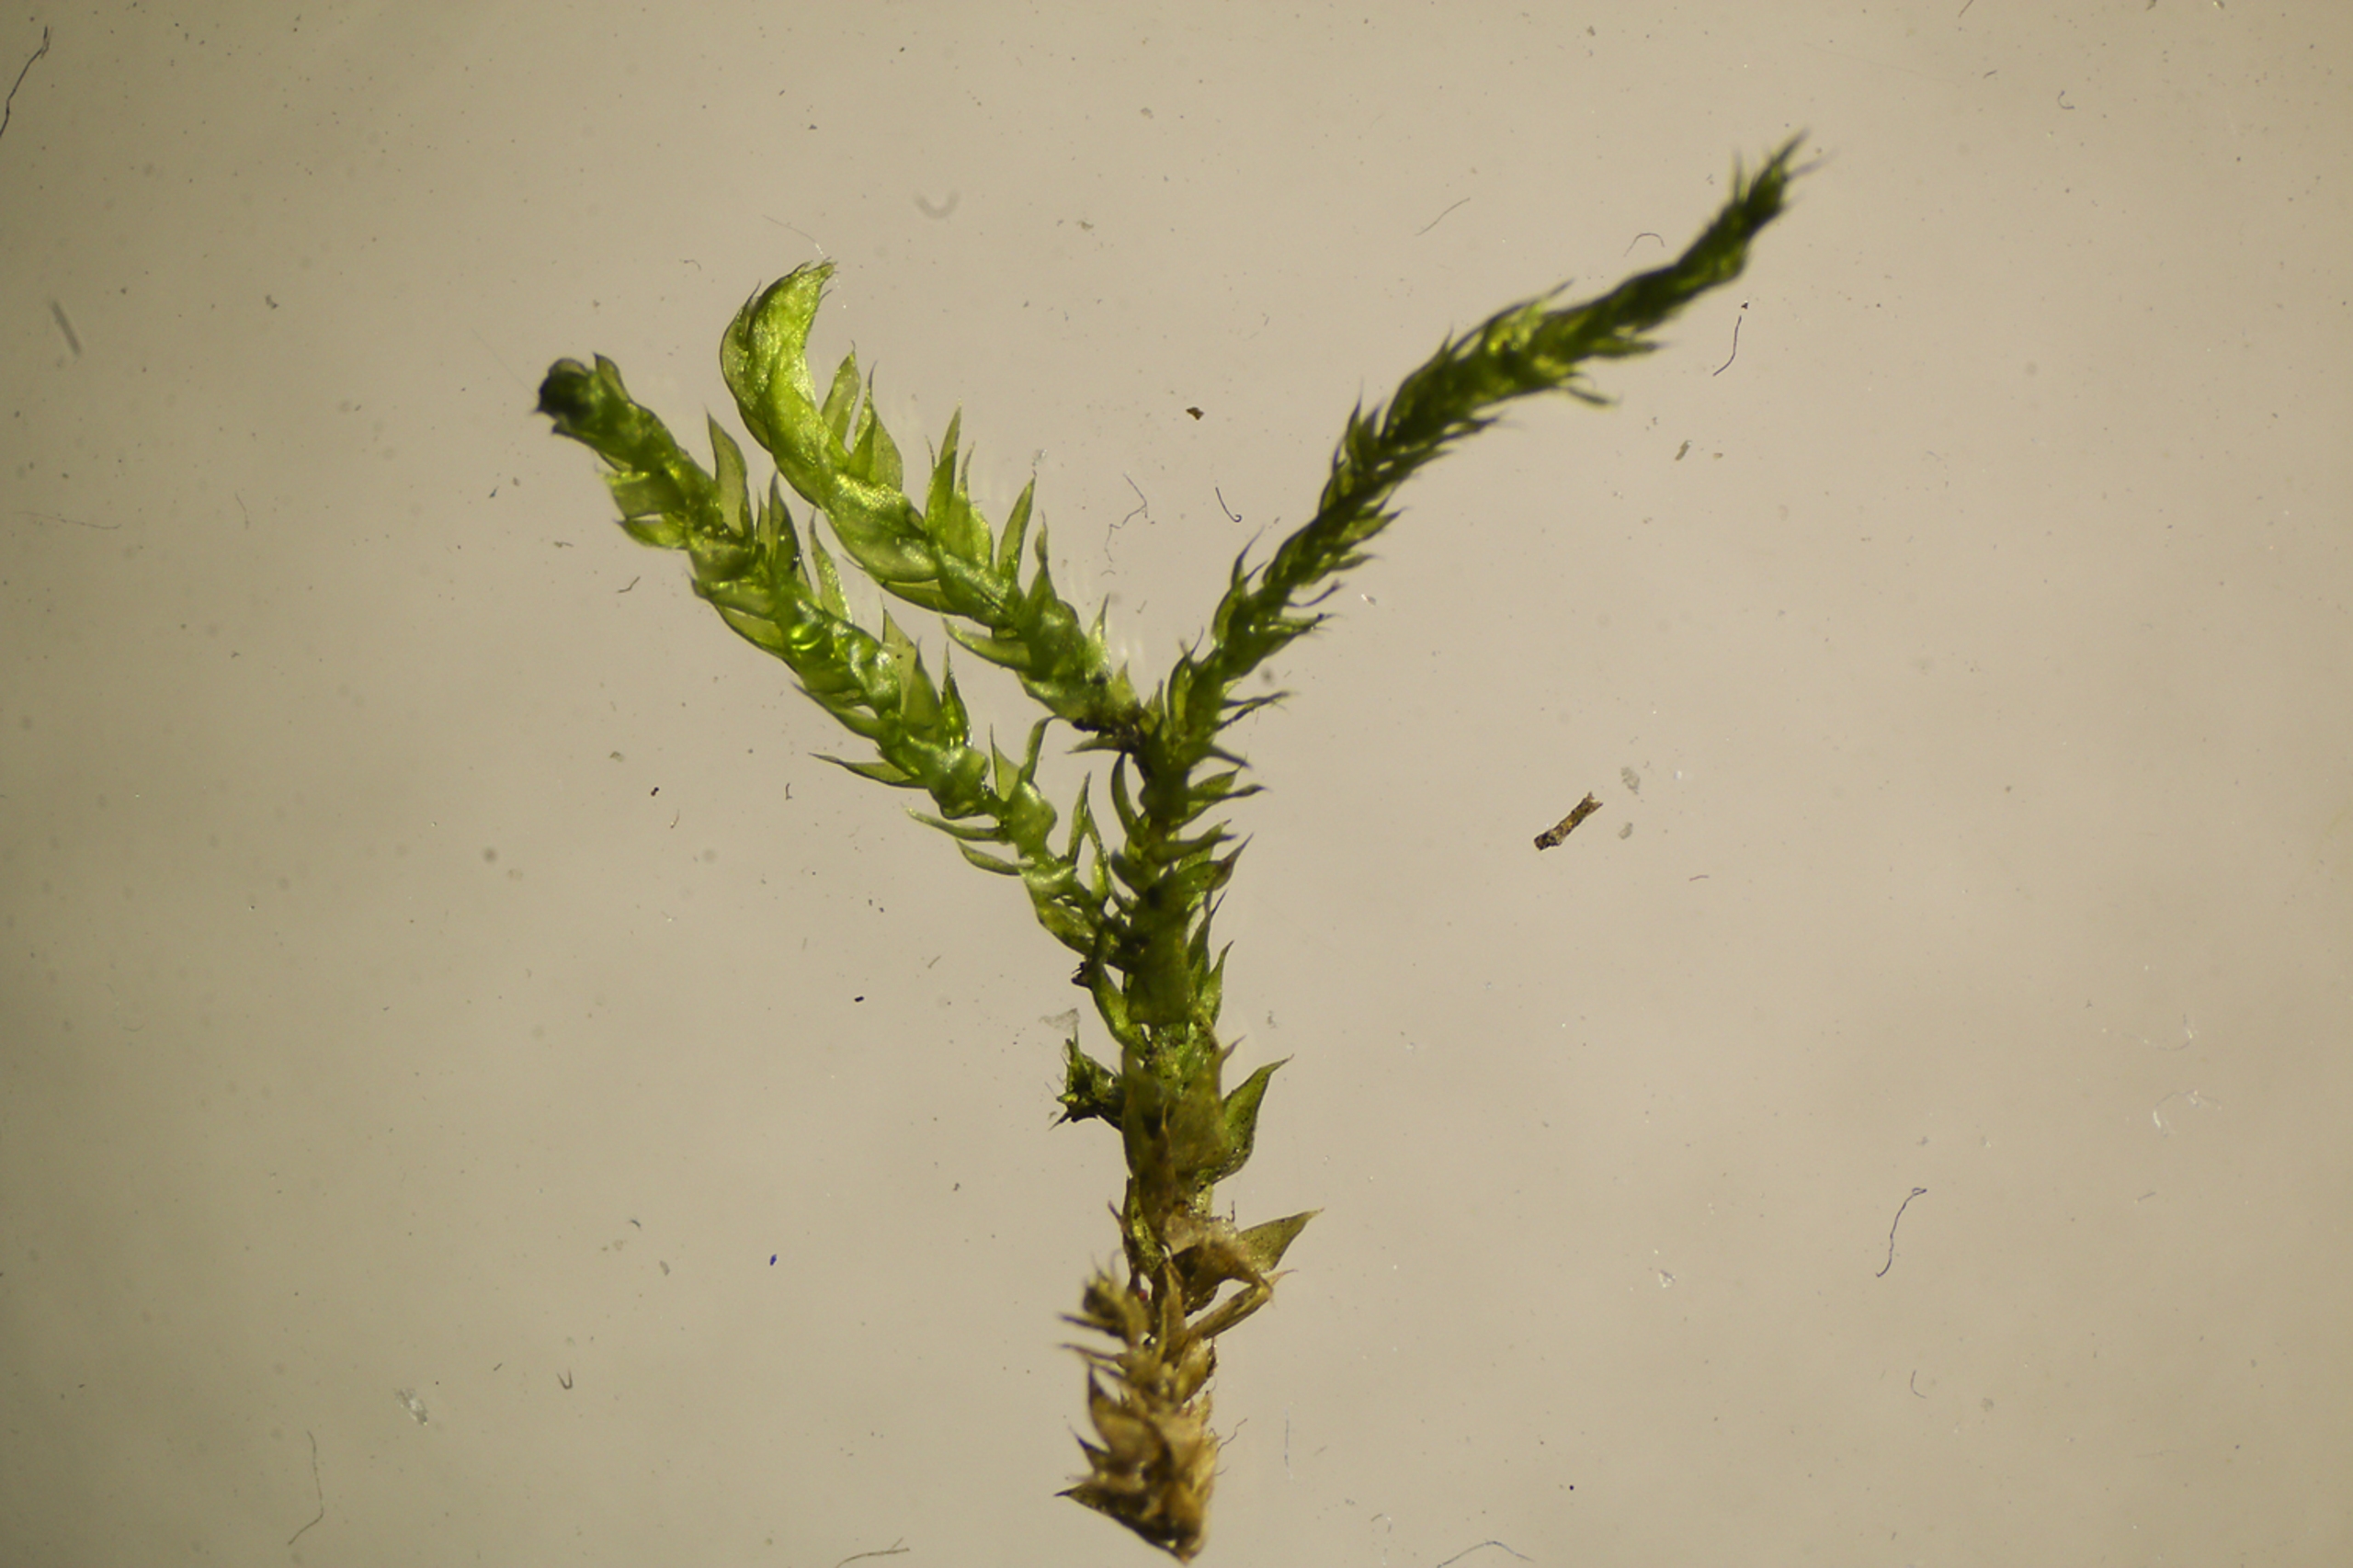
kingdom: Plantae
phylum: Bryophyta
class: Bryopsida
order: Hypnales
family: Brachytheciaceae
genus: Sciuro-hypnum
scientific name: Sciuro-hypnum plumosum
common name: Sten-kortkapsel
